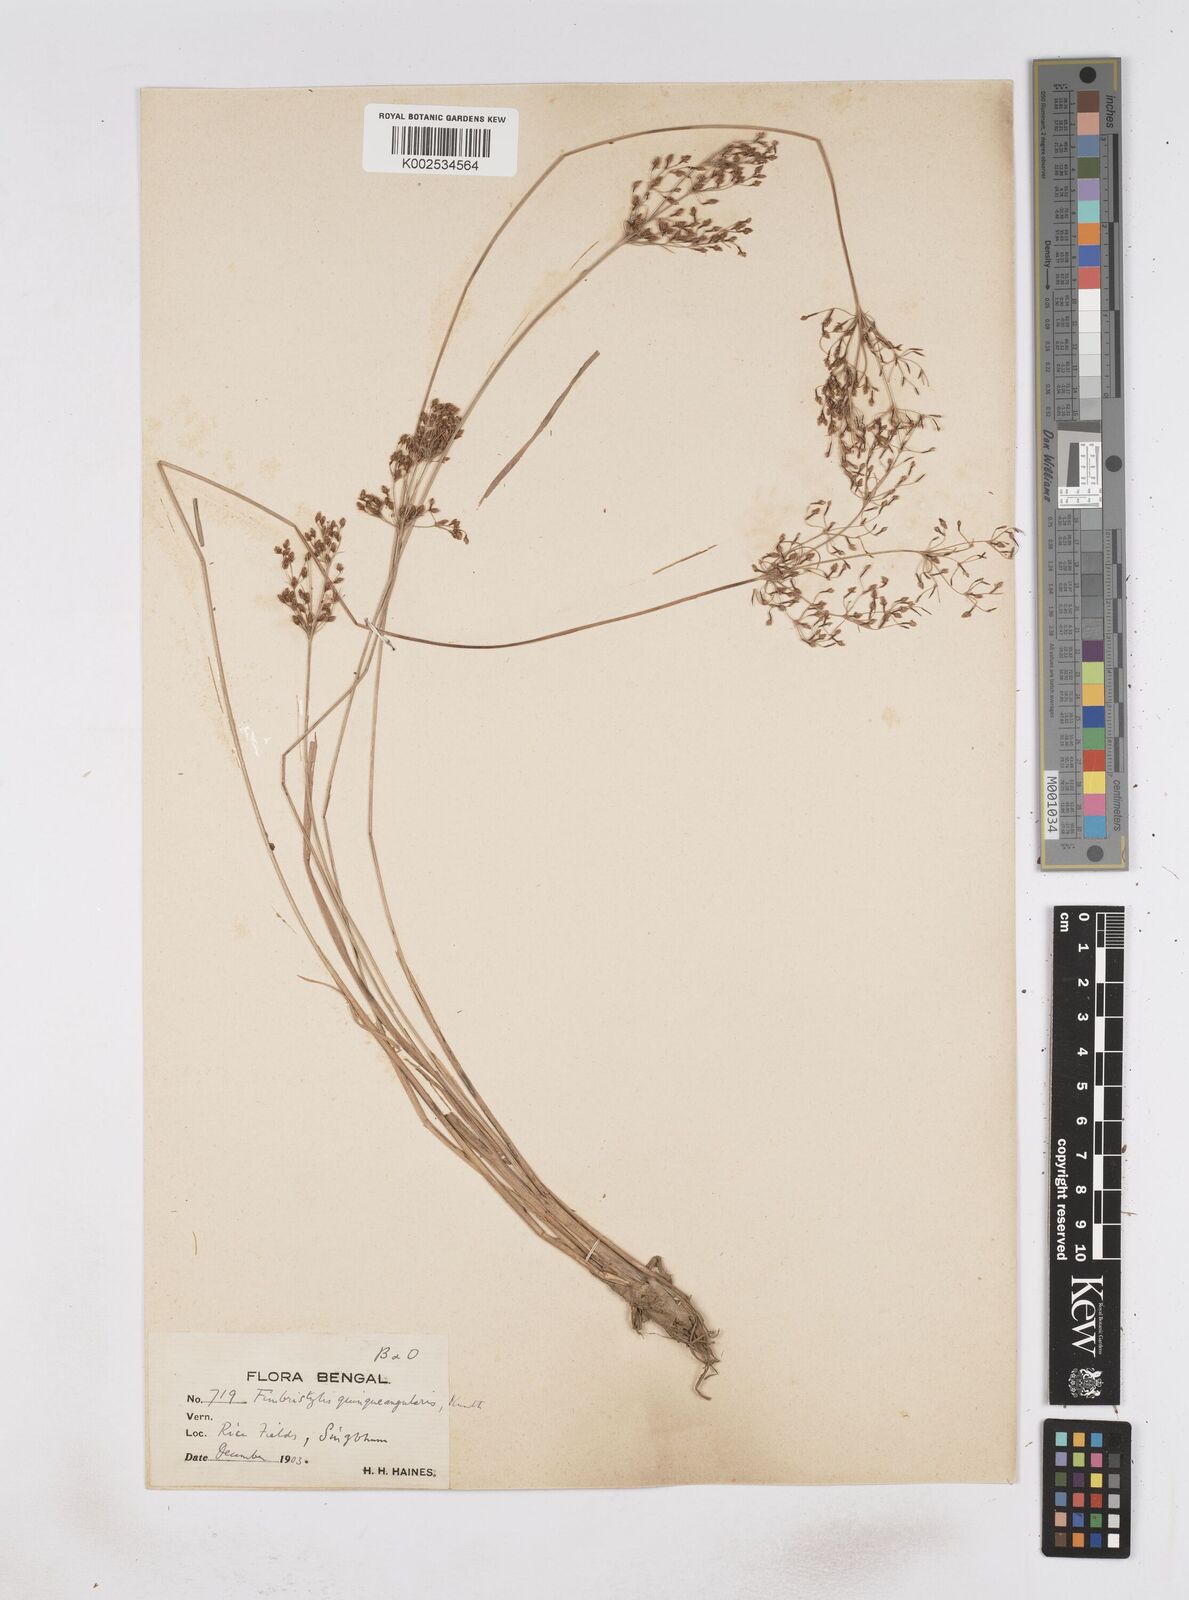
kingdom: Plantae
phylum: Tracheophyta
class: Liliopsida
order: Poales
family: Cyperaceae
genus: Fimbristylis
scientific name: Fimbristylis quinquangularis
